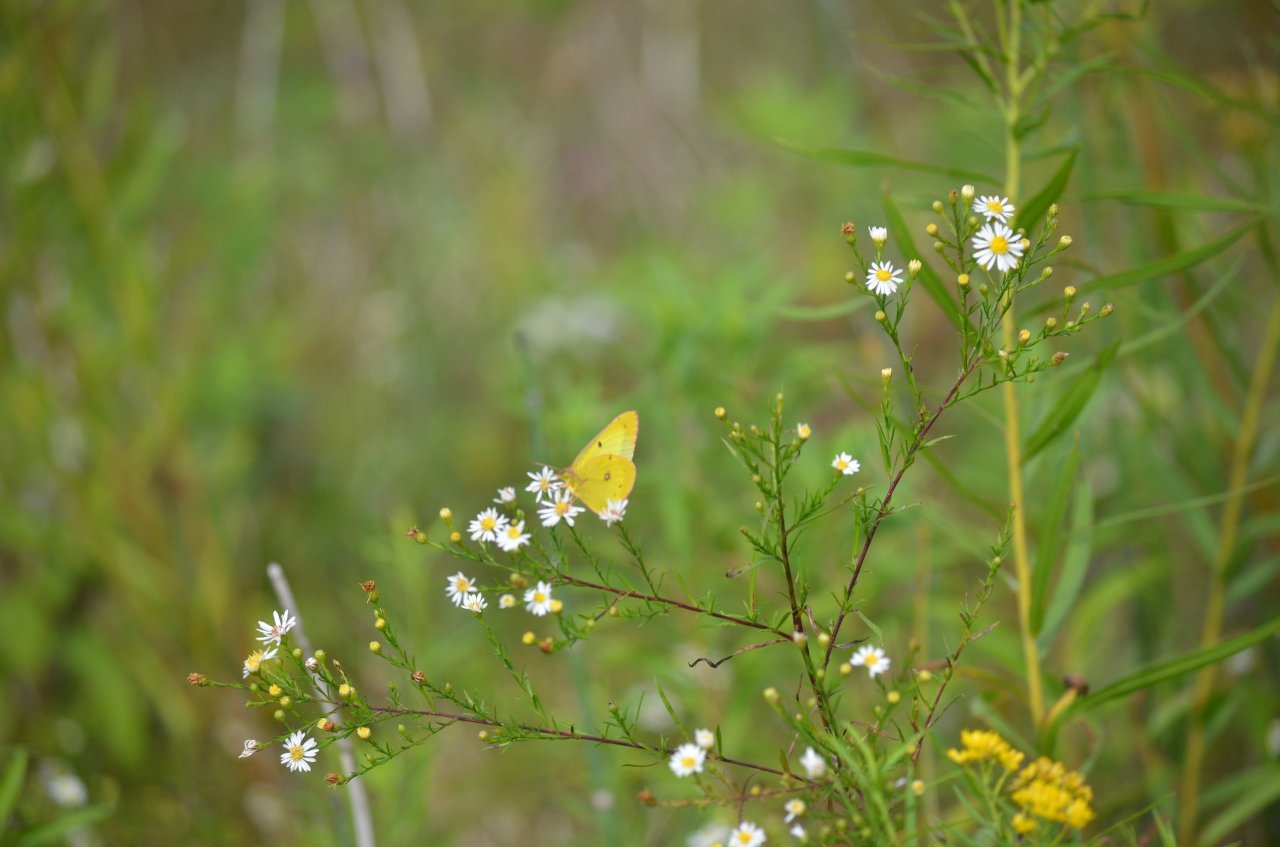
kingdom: Animalia
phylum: Arthropoda
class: Insecta
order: Lepidoptera
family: Pieridae
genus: Colias
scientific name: Colias philodice
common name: Clouded Sulphur
